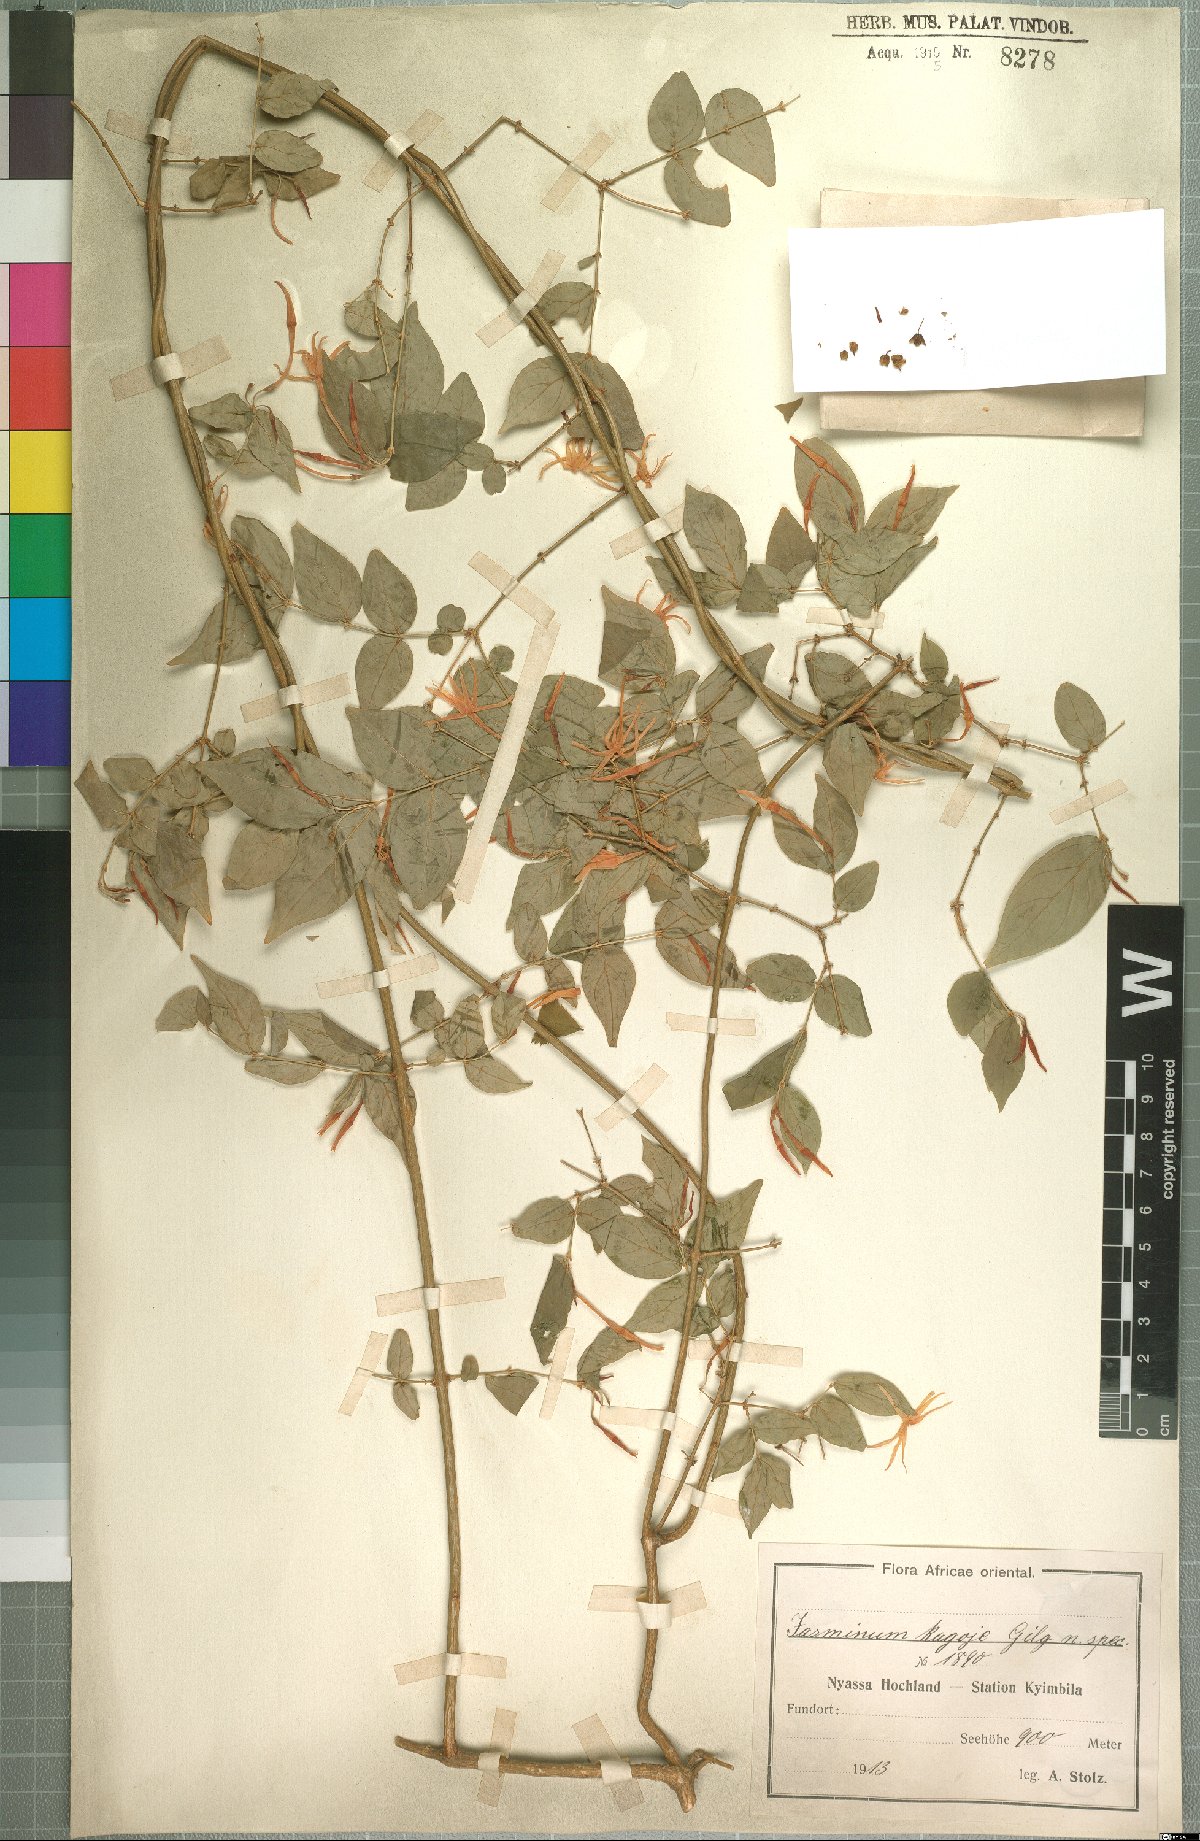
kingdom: Plantae
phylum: Tracheophyta
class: Magnoliopsida
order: Lamiales
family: Oleaceae
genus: Jasminum
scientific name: Jasminum streptopus
